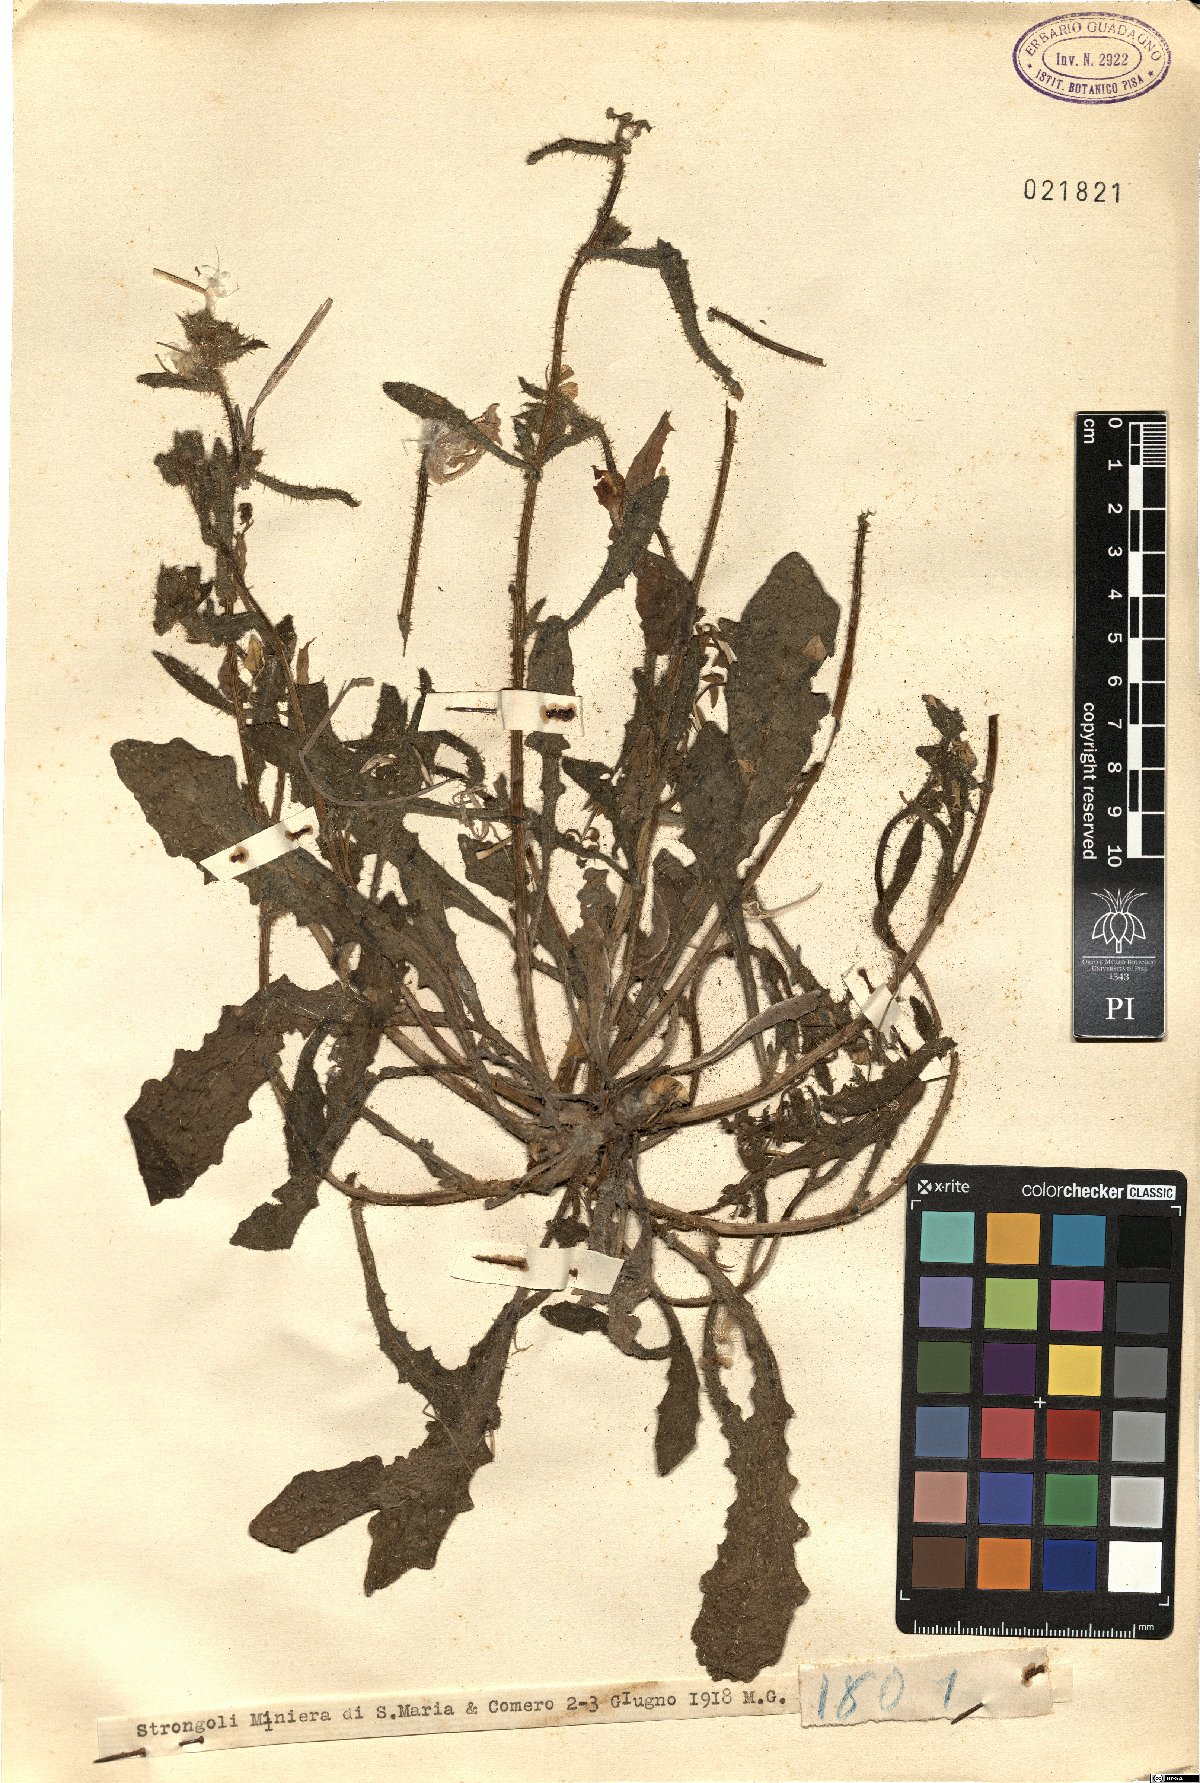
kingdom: Plantae
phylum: Tracheophyta
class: Magnoliopsida
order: Asterales
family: Asteraceae
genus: Picris
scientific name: Picris
